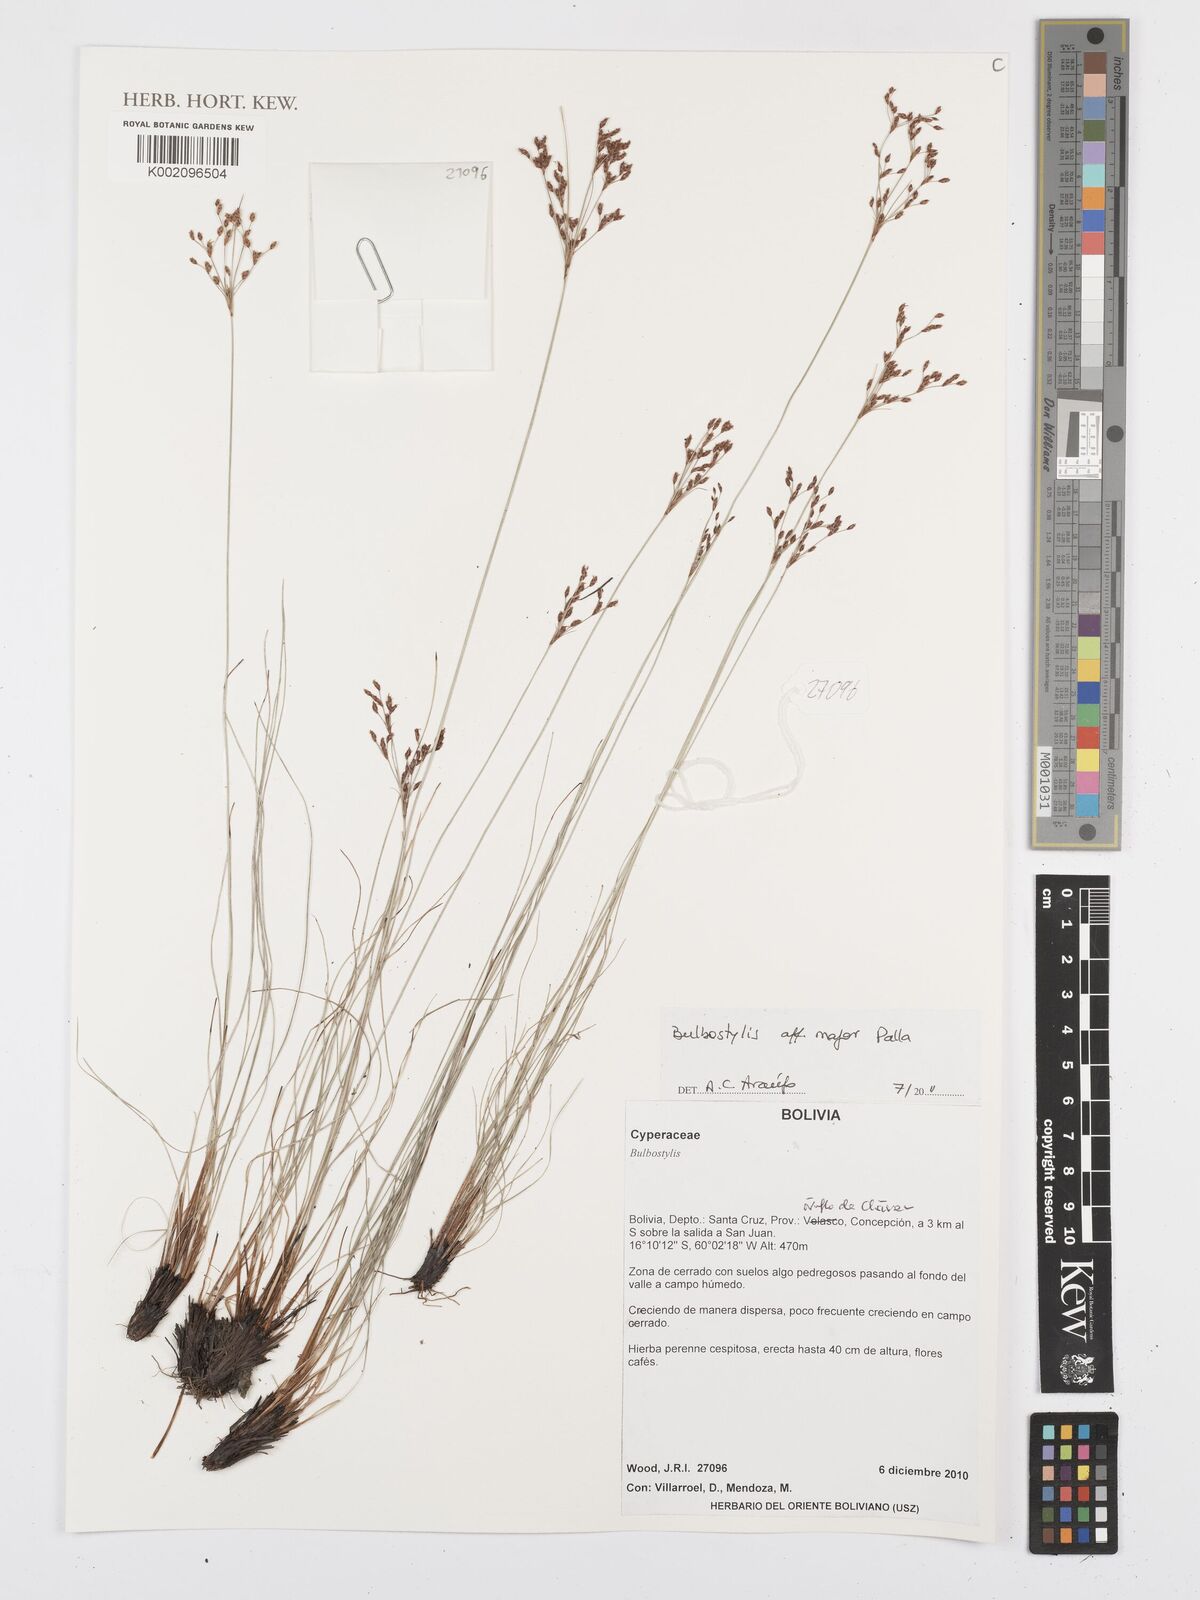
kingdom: Plantae
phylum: Tracheophyta
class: Liliopsida
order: Poales
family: Cyperaceae
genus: Bulbostylis
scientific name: Bulbostylis major
